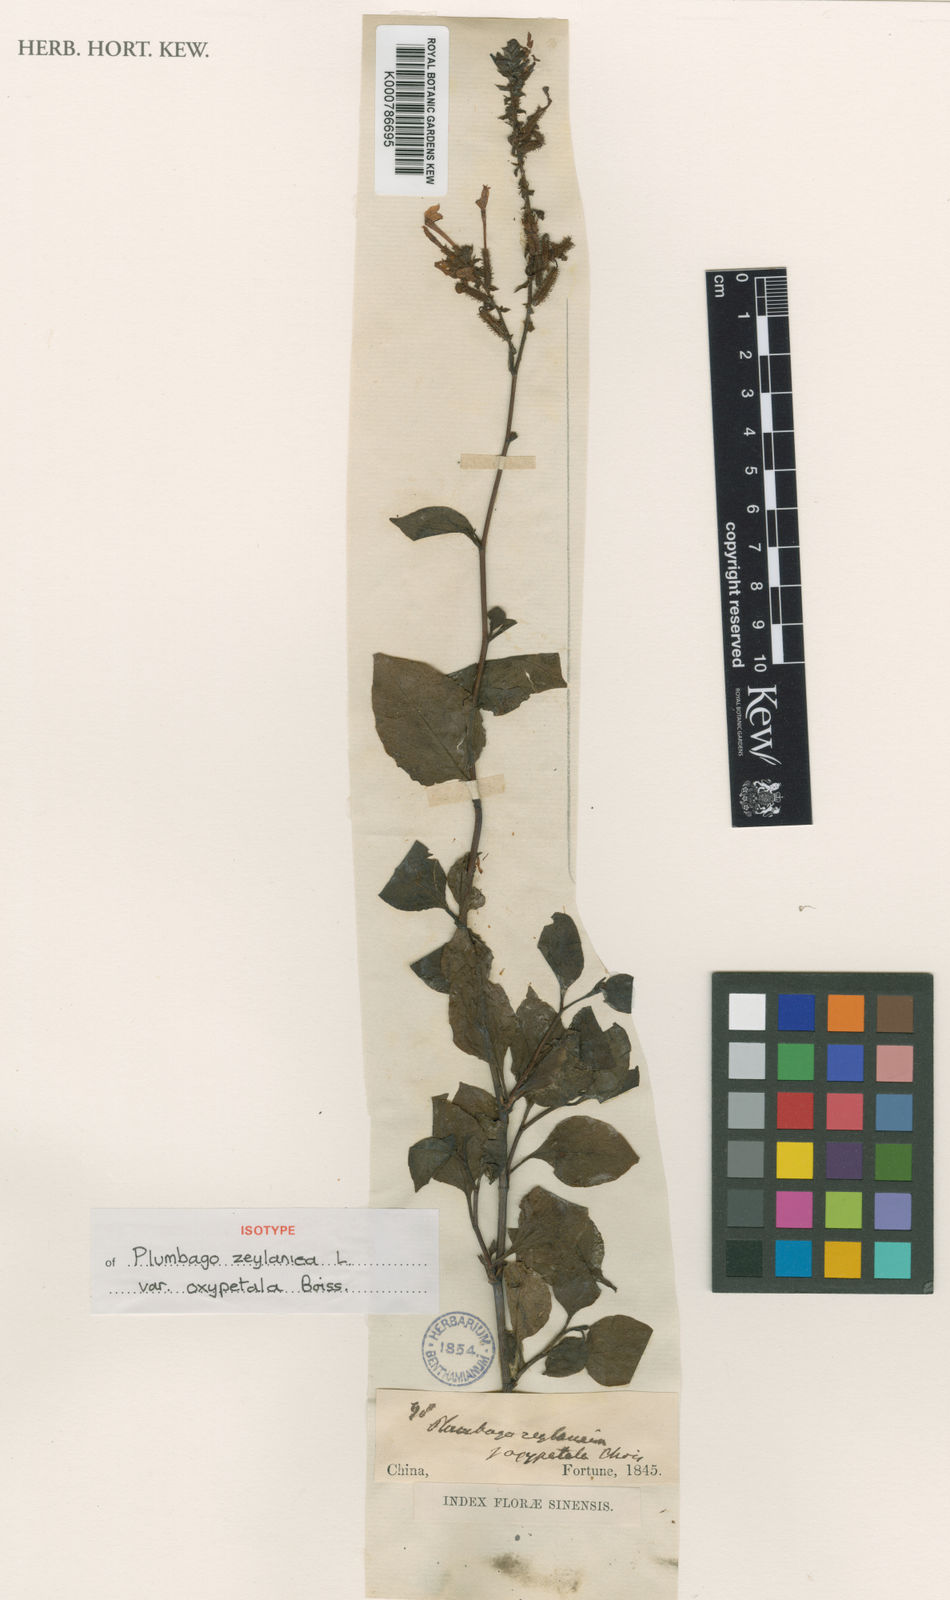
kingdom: Plantae
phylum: Tracheophyta
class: Magnoliopsida
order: Caryophyllales
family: Plumbaginaceae
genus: Plumbago
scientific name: Plumbago zeylanica
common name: Doctorbush
